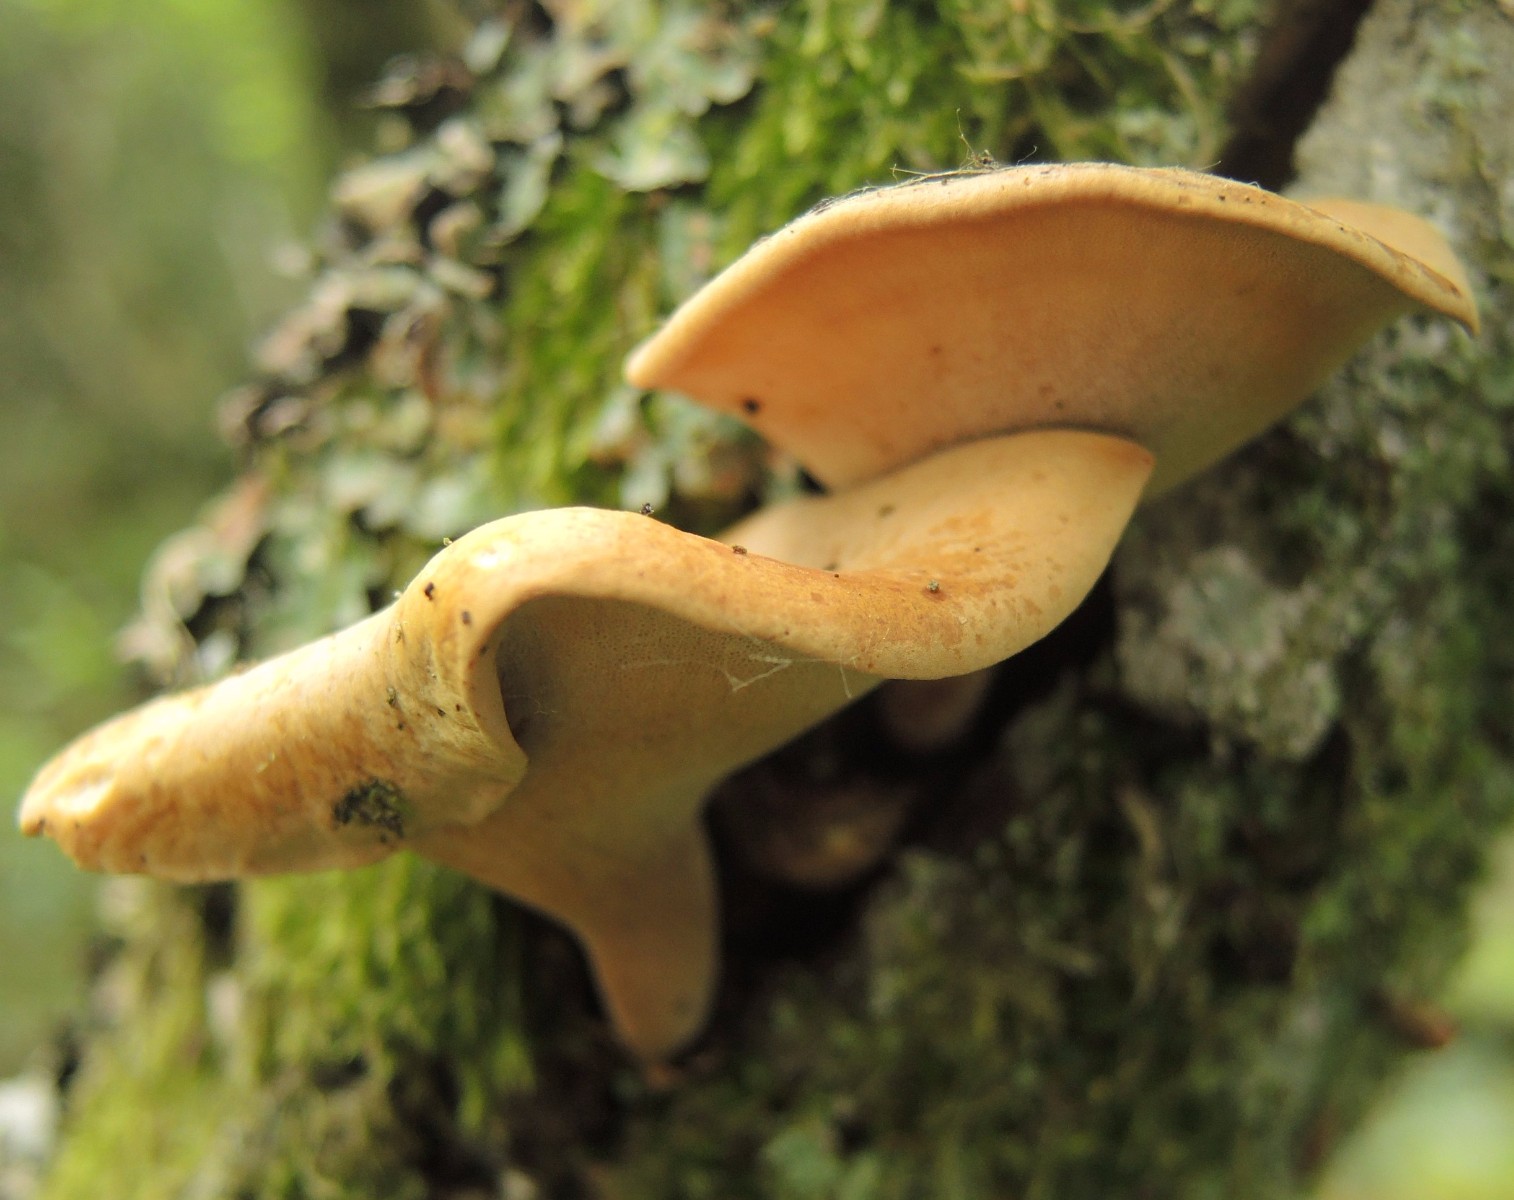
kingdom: Fungi
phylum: Basidiomycota
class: Agaricomycetes
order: Polyporales
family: Polyporaceae
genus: Cerioporus
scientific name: Cerioporus varius
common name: foranderlig stilkporesvamp
